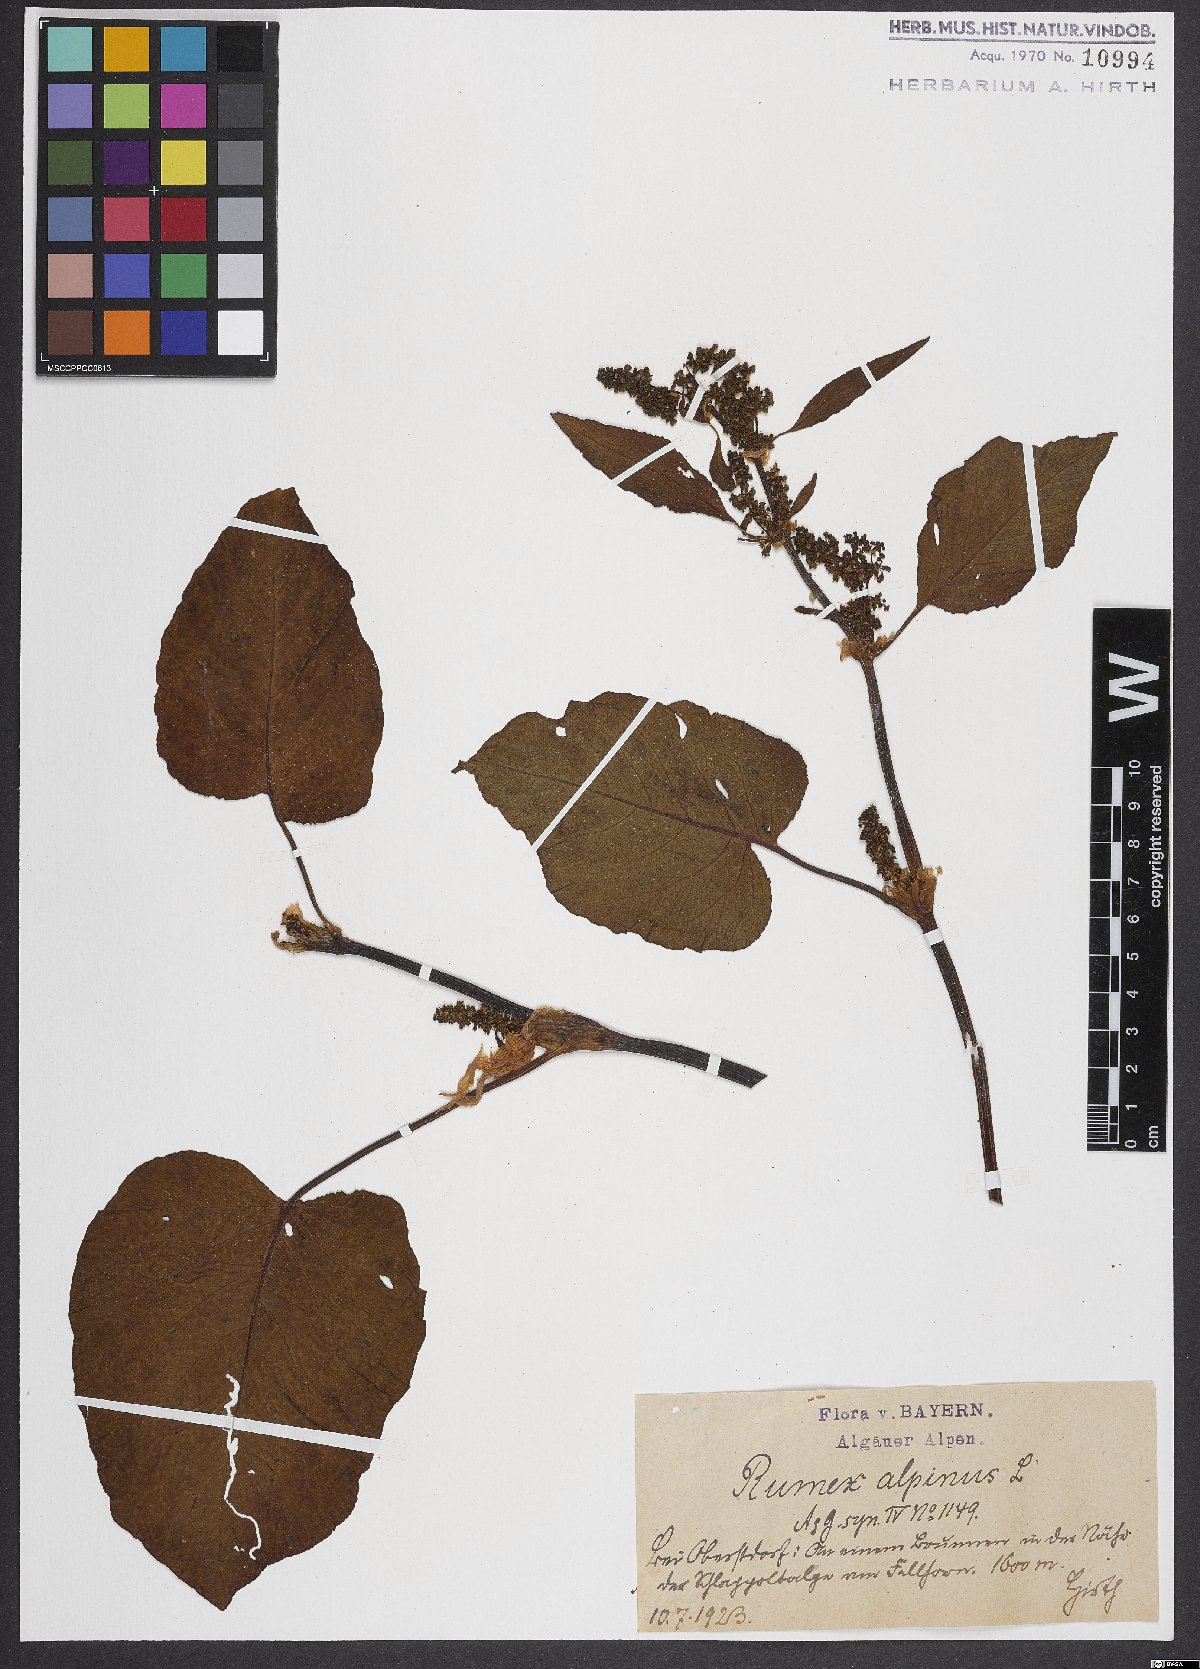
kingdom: Plantae
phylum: Tracheophyta
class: Magnoliopsida
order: Caryophyllales
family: Polygonaceae
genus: Rumex
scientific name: Rumex alpinus
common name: Alpine dock
